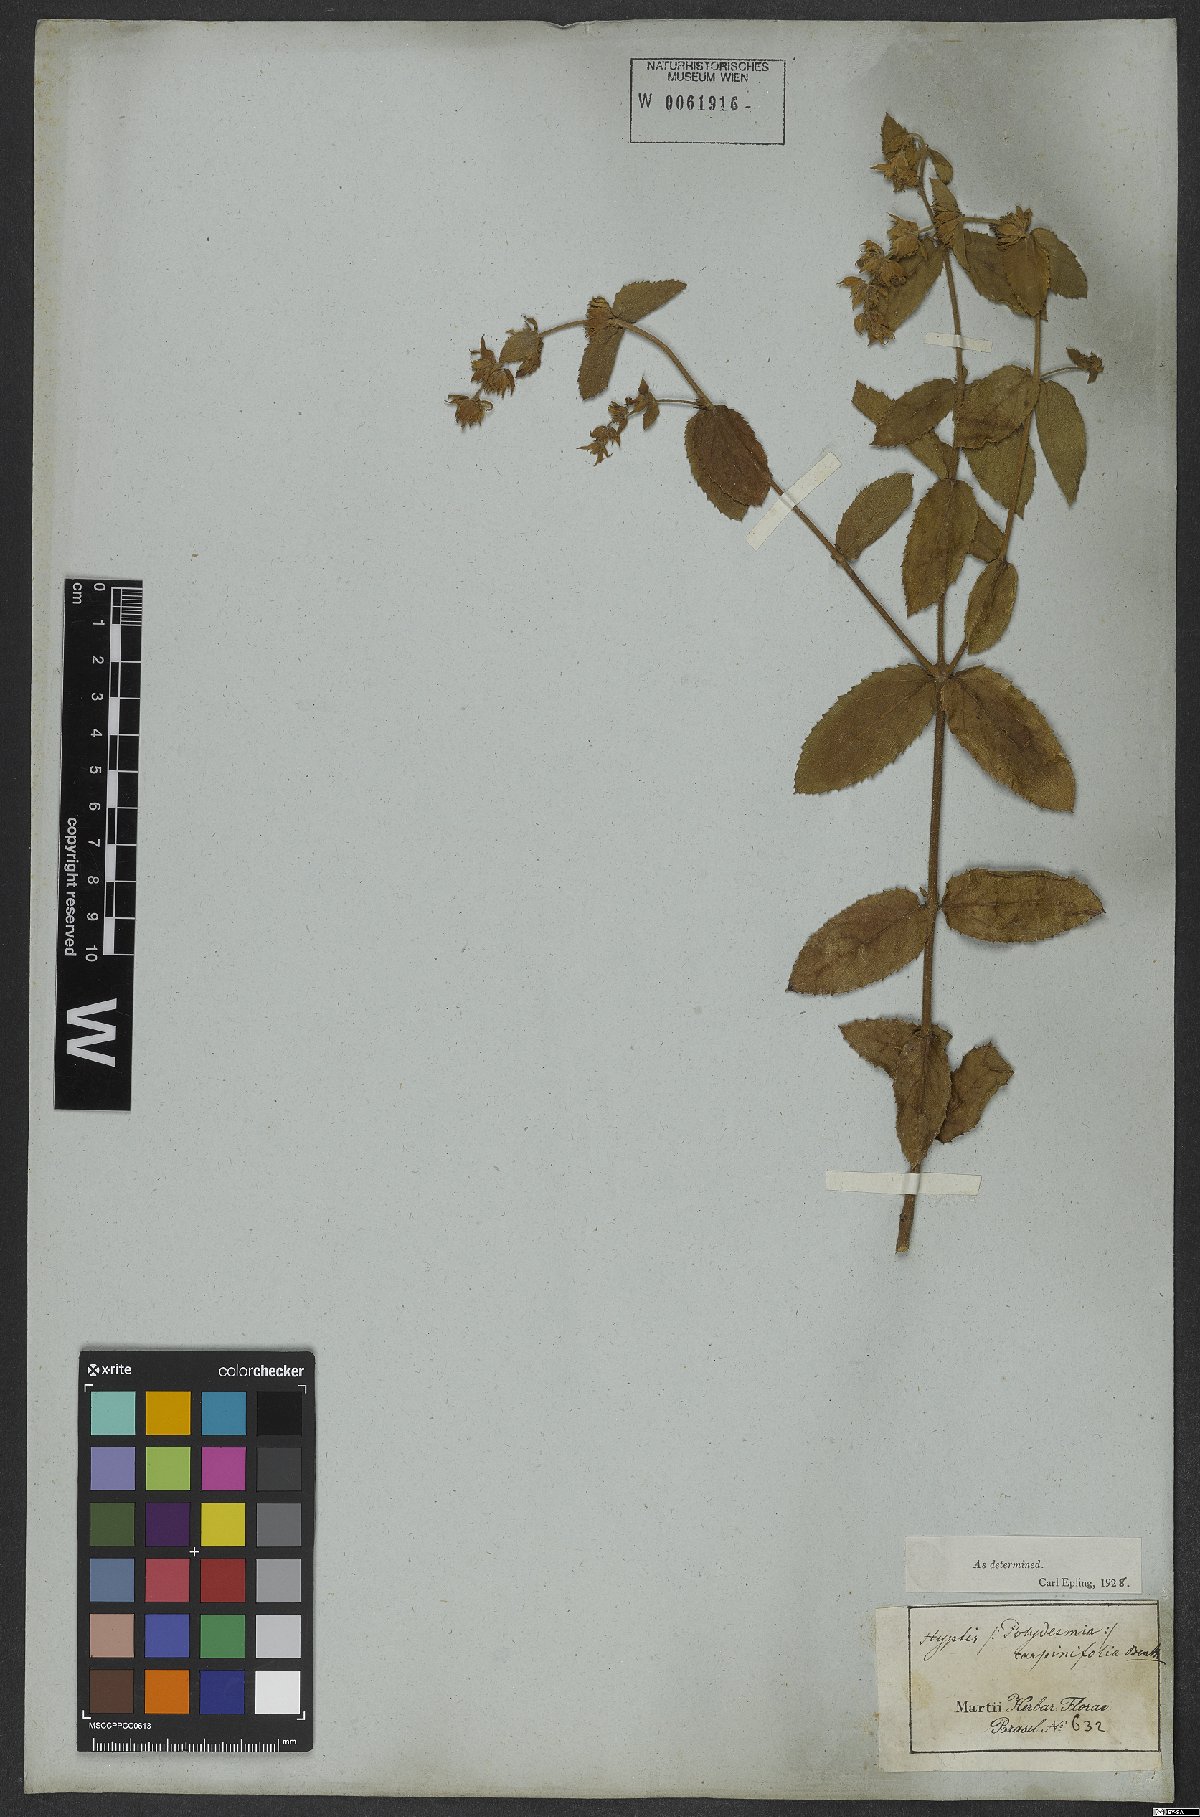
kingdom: Plantae
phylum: Tracheophyta
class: Magnoliopsida
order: Lamiales
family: Lamiaceae
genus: Cantinoa
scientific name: Cantinoa carpinifolia
